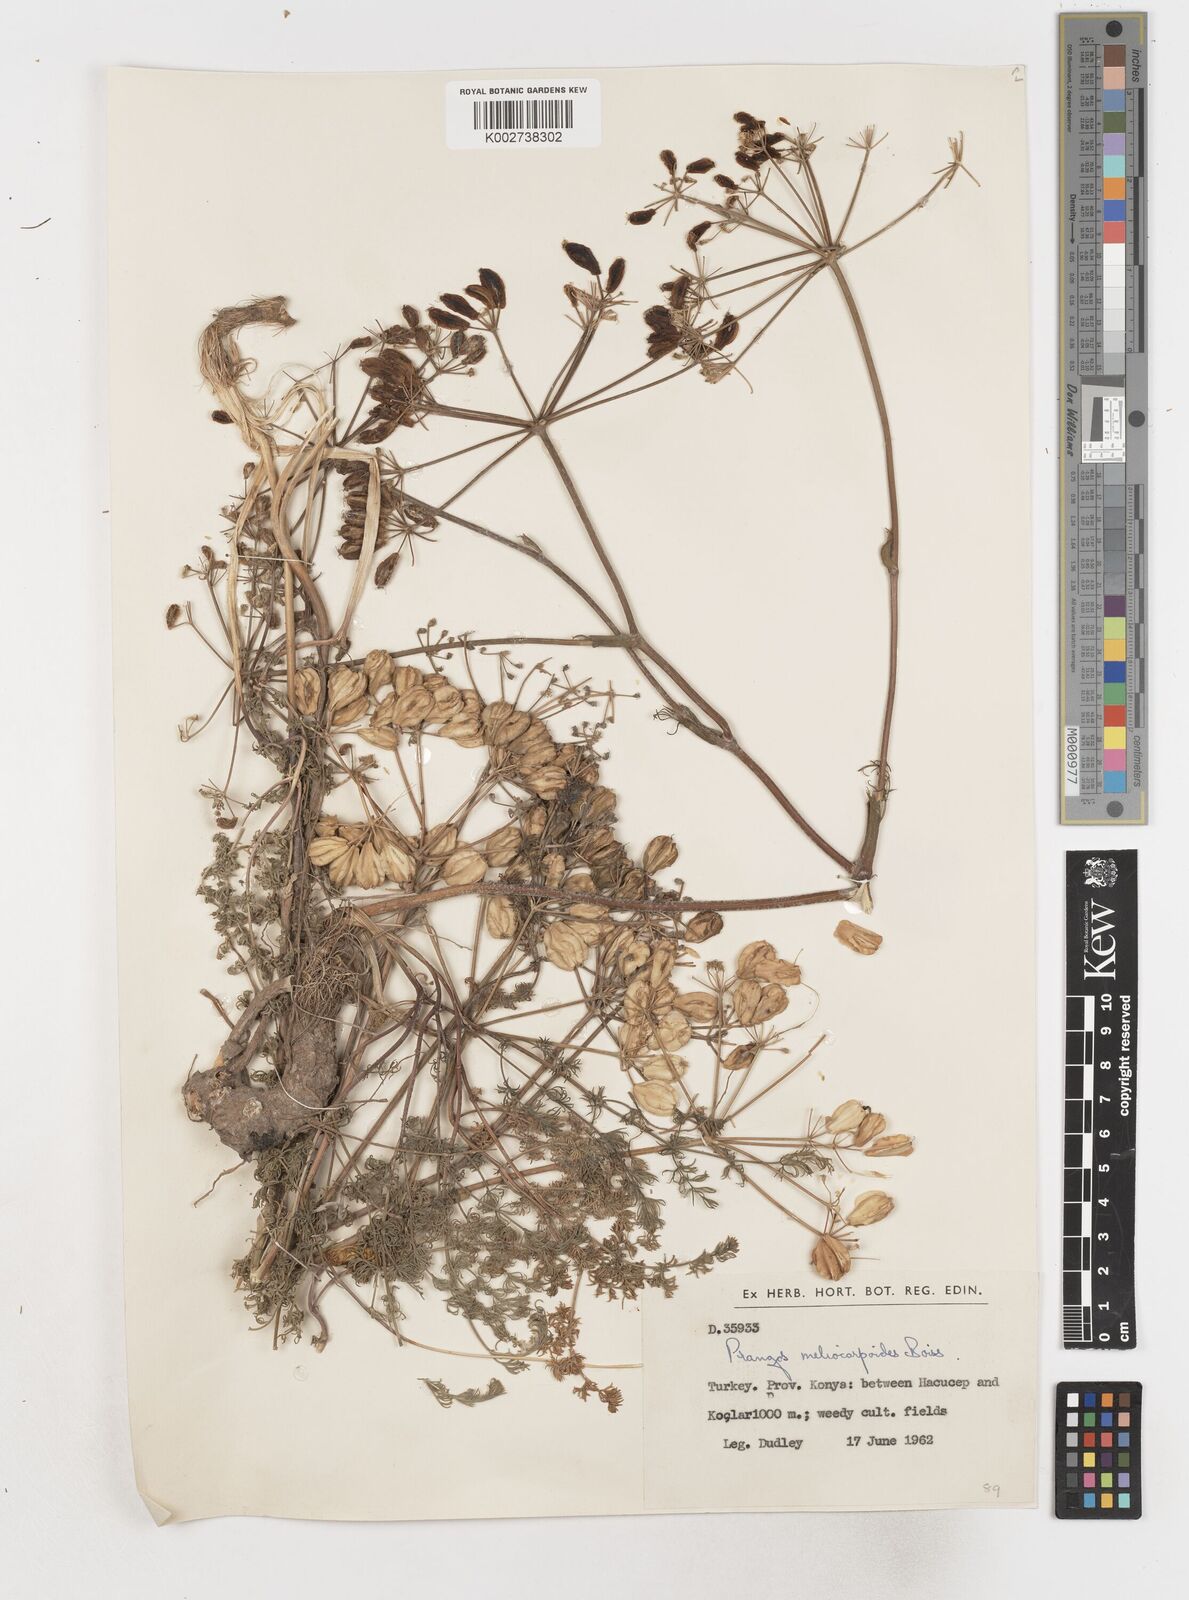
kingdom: Plantae
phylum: Tracheophyta
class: Magnoliopsida
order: Apiales
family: Apiaceae
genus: Prangos
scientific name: Prangos
